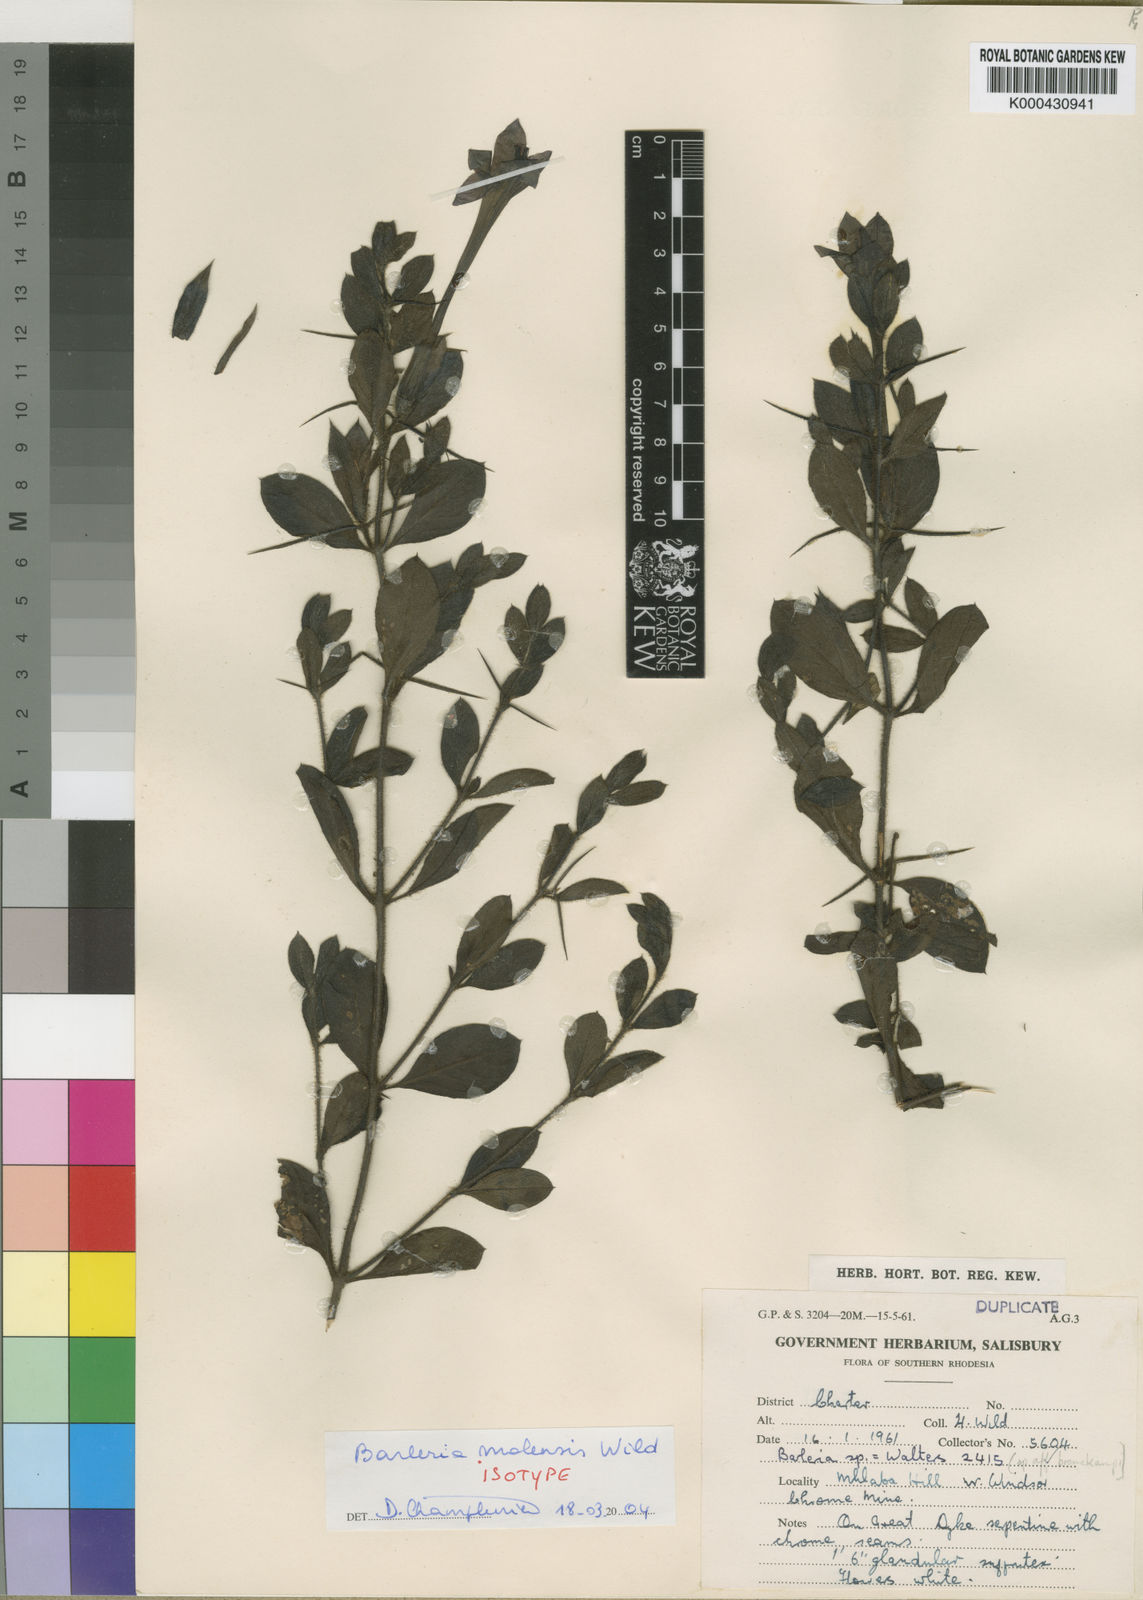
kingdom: Plantae
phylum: Tracheophyta
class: Magnoliopsida
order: Lamiales
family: Acanthaceae
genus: Barleria
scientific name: Barleria molensis
